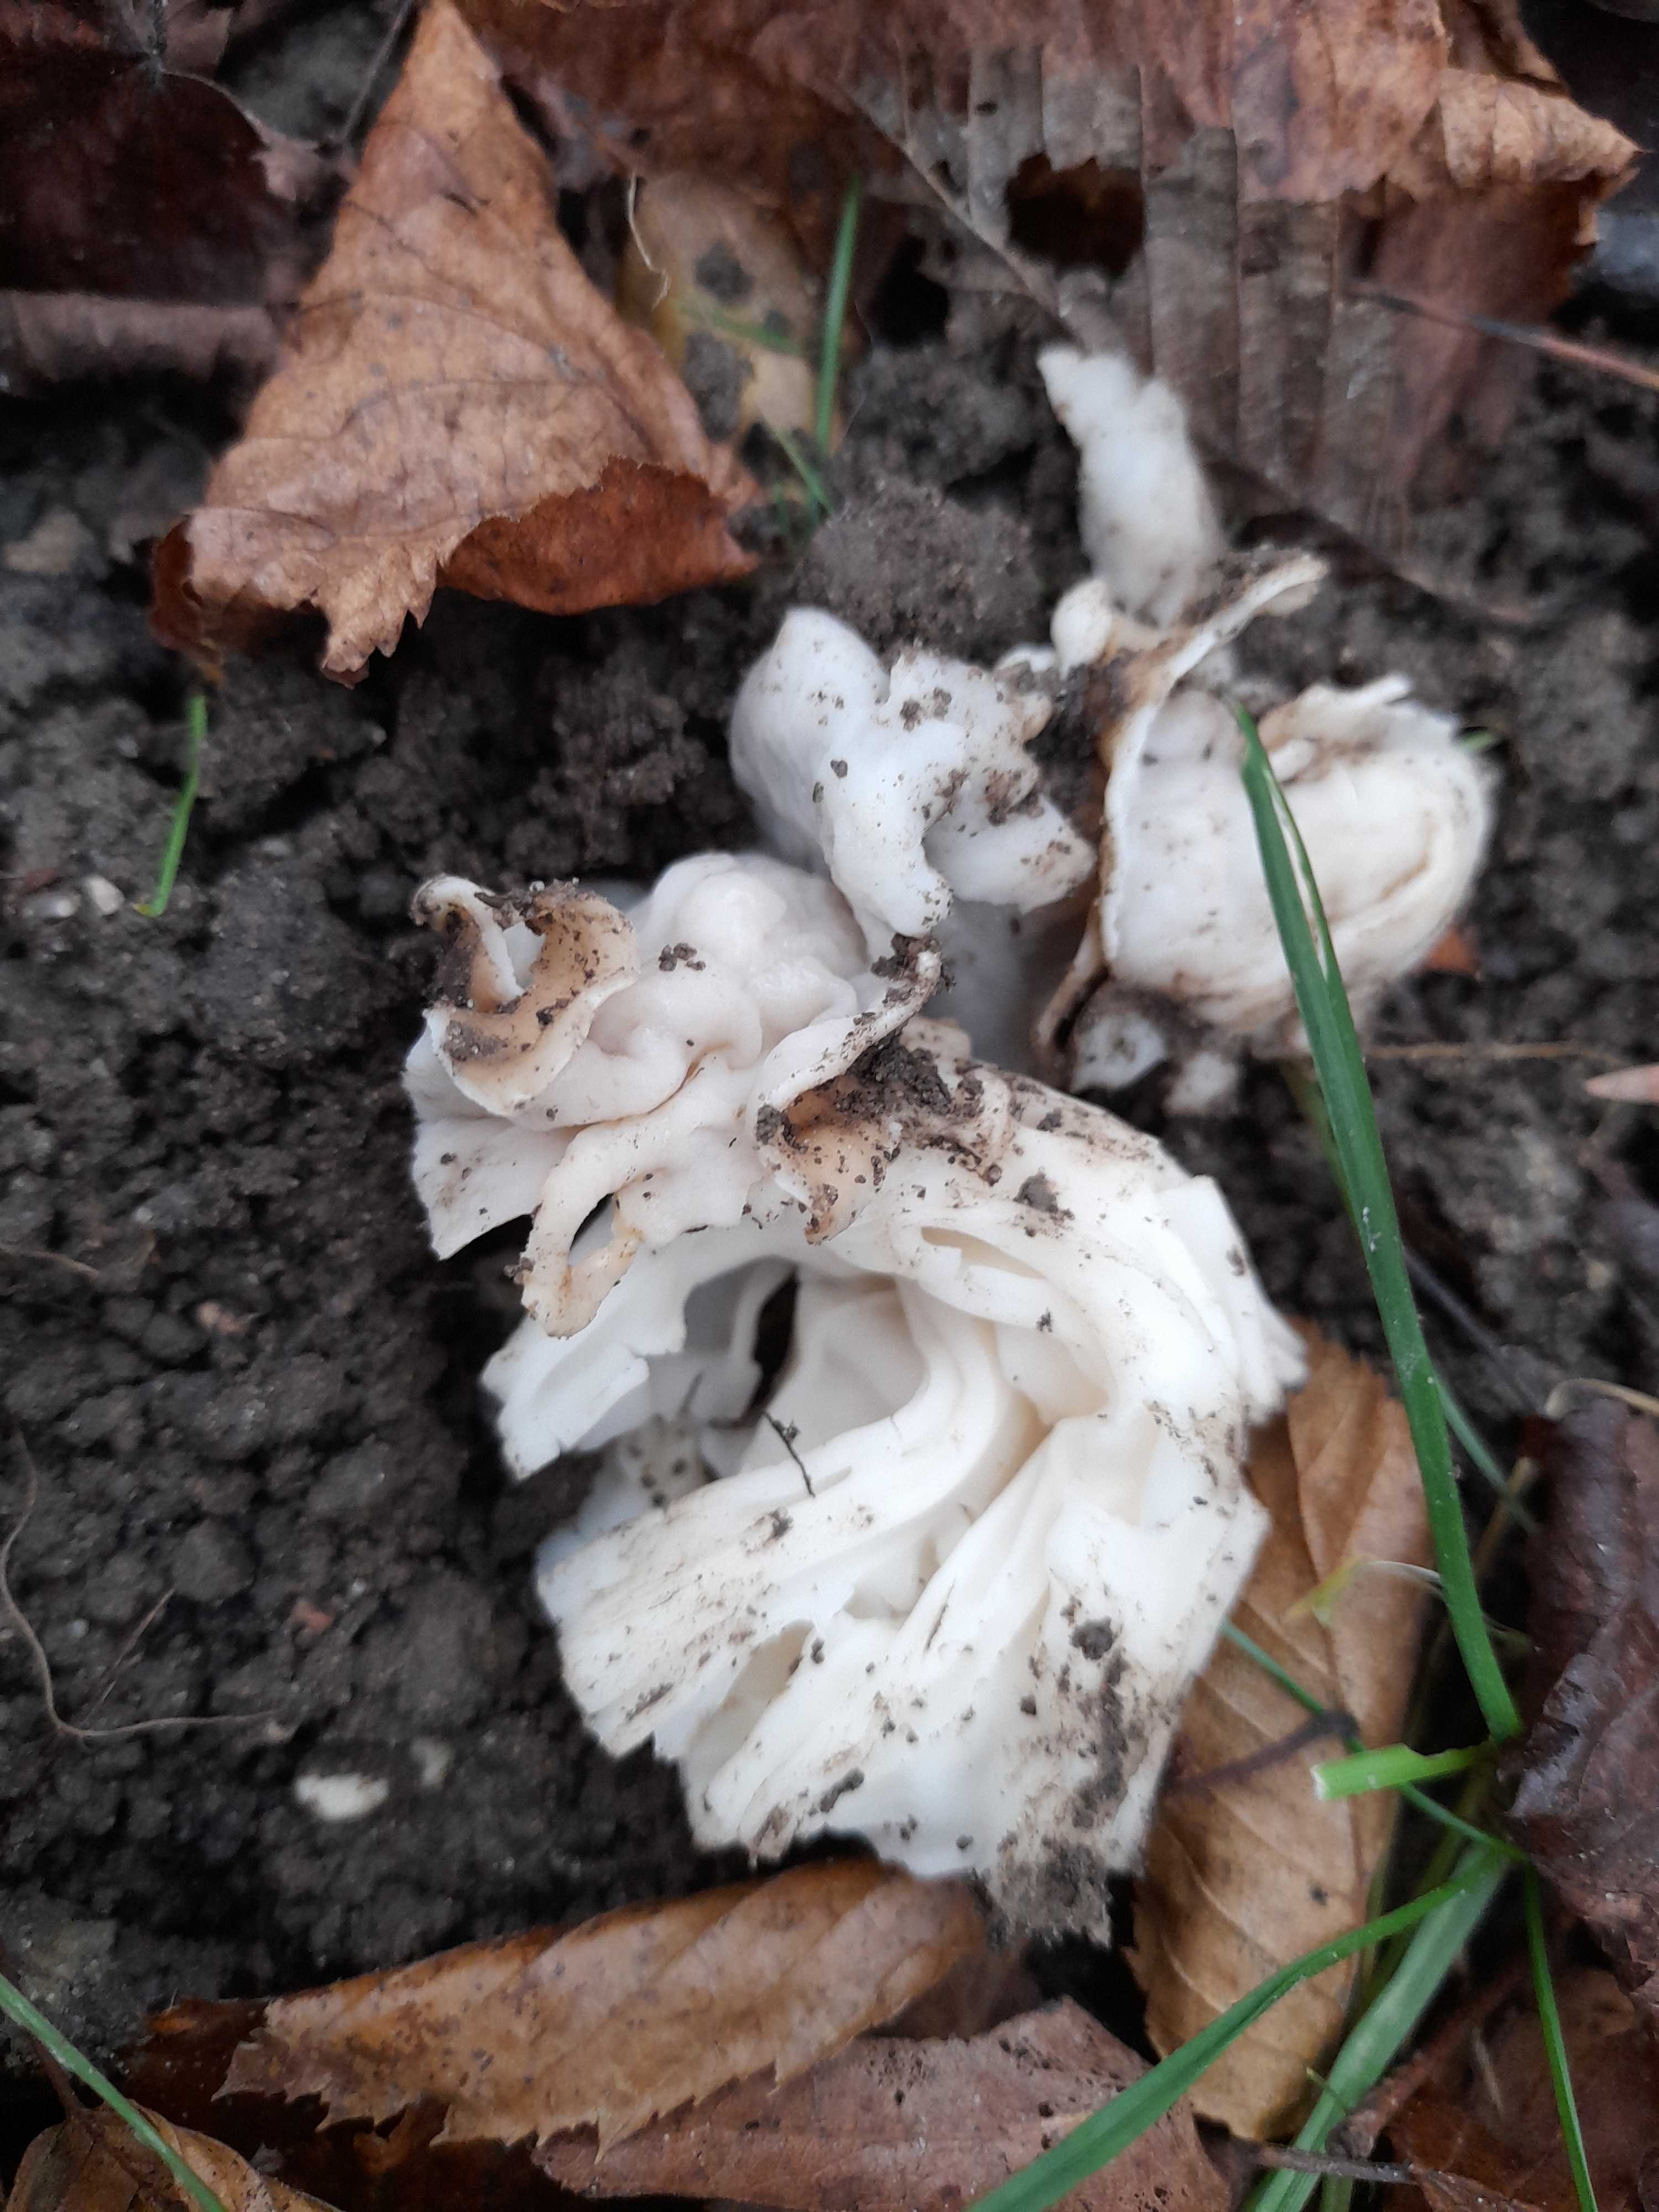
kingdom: Fungi
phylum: Ascomycota
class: Pezizomycetes
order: Pezizales
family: Helvellaceae
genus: Helvella
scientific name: Helvella crispa
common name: kruset foldhat
